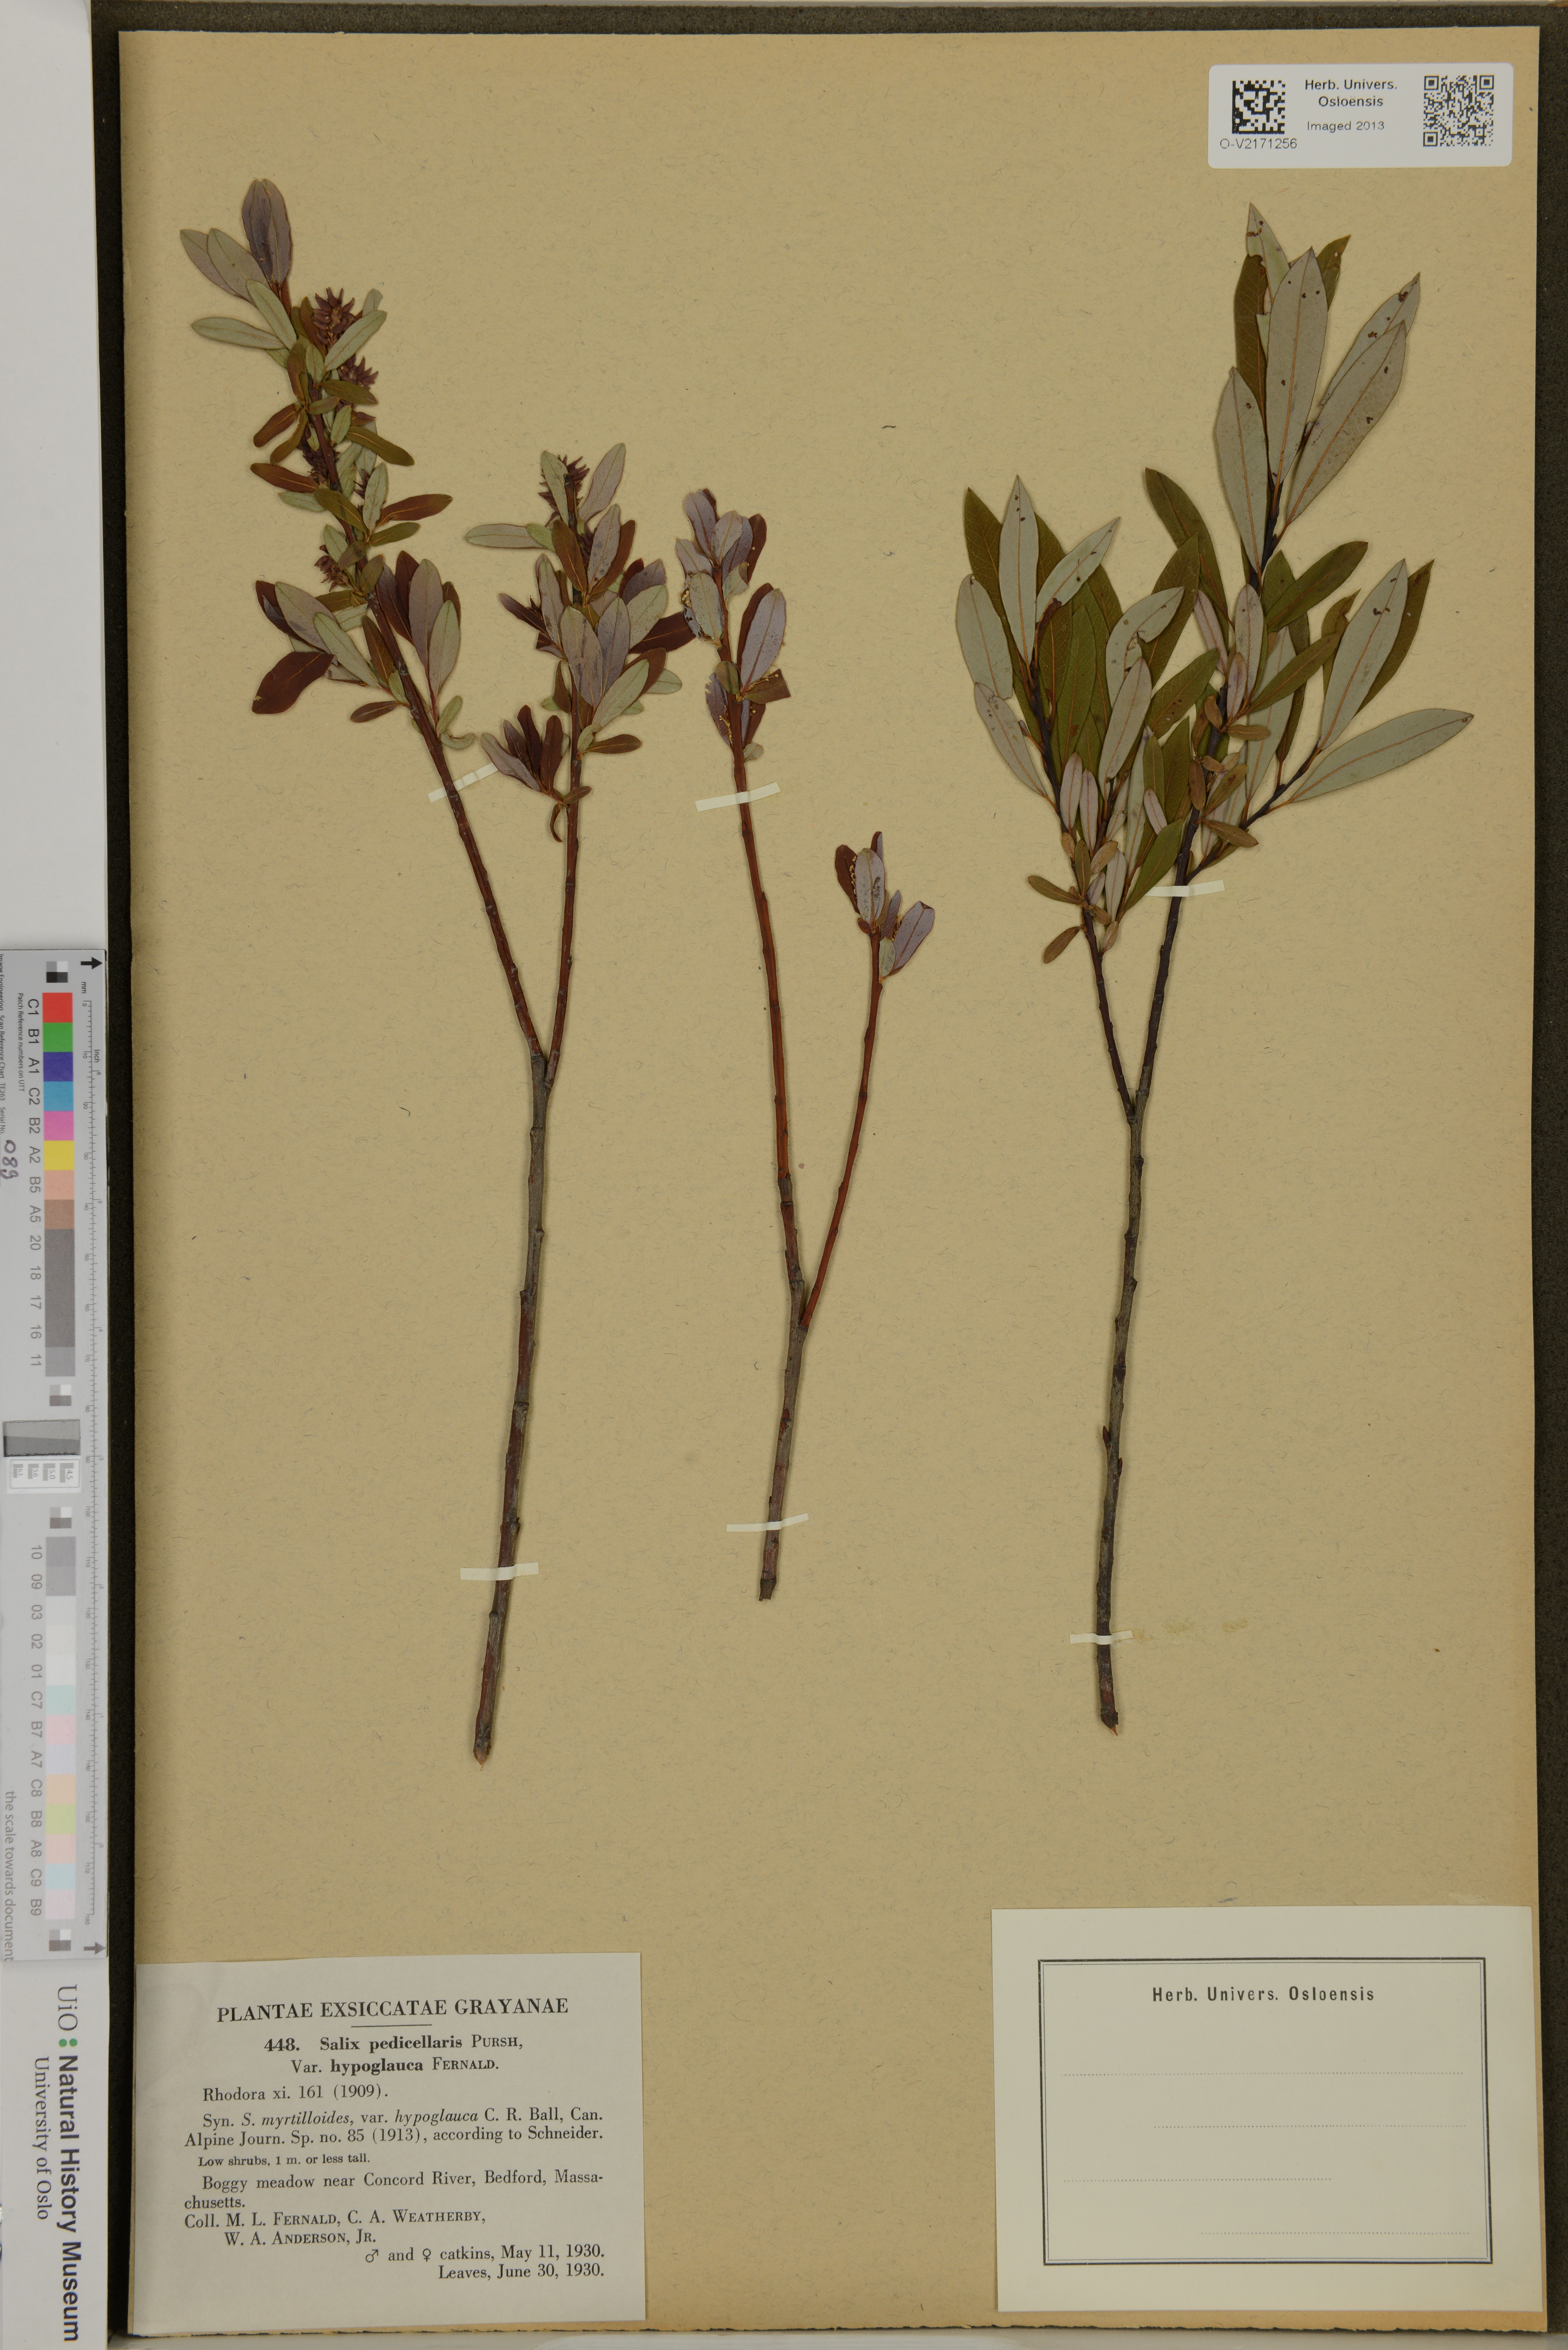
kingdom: Plantae
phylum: Tracheophyta
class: Magnoliopsida
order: Malpighiales
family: Salicaceae
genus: Salix
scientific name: Salix pedicellaris
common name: Bog willow
